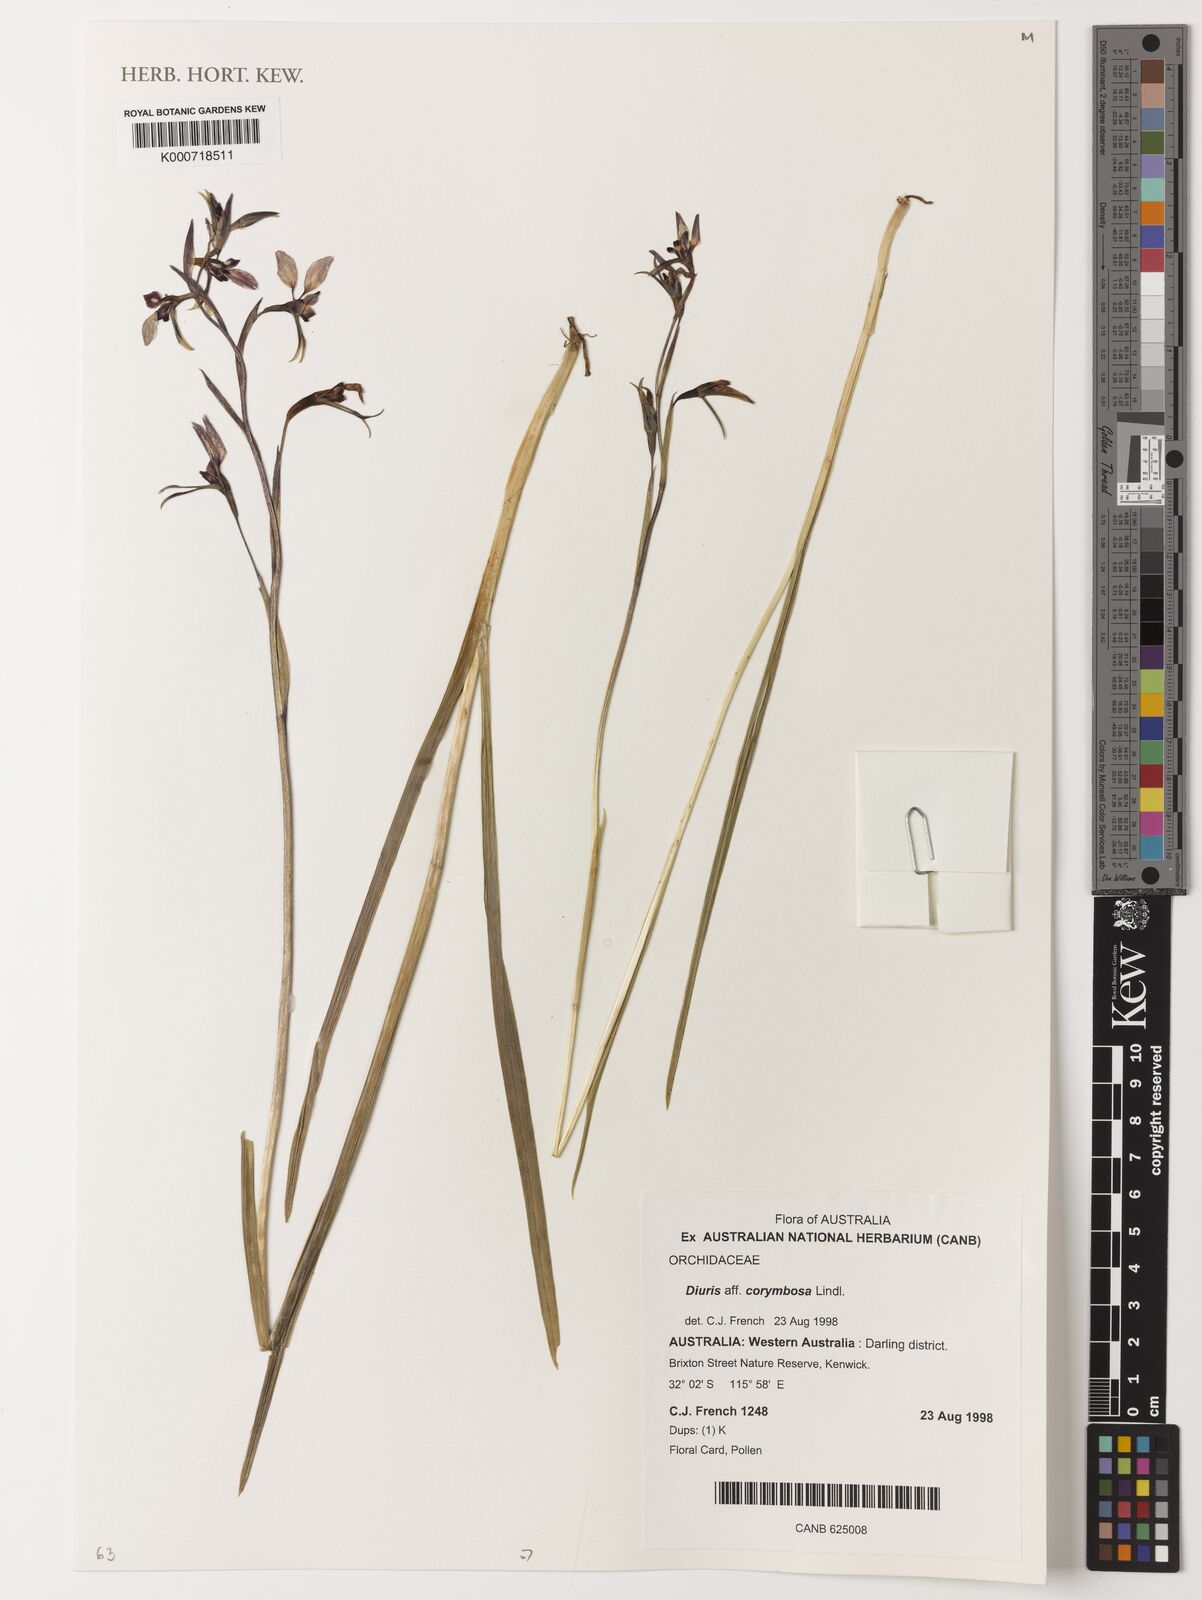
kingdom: Plantae
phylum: Tracheophyta
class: Liliopsida
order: Asparagales
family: Orchidaceae
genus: Diuris
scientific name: Diuris corymbosa
